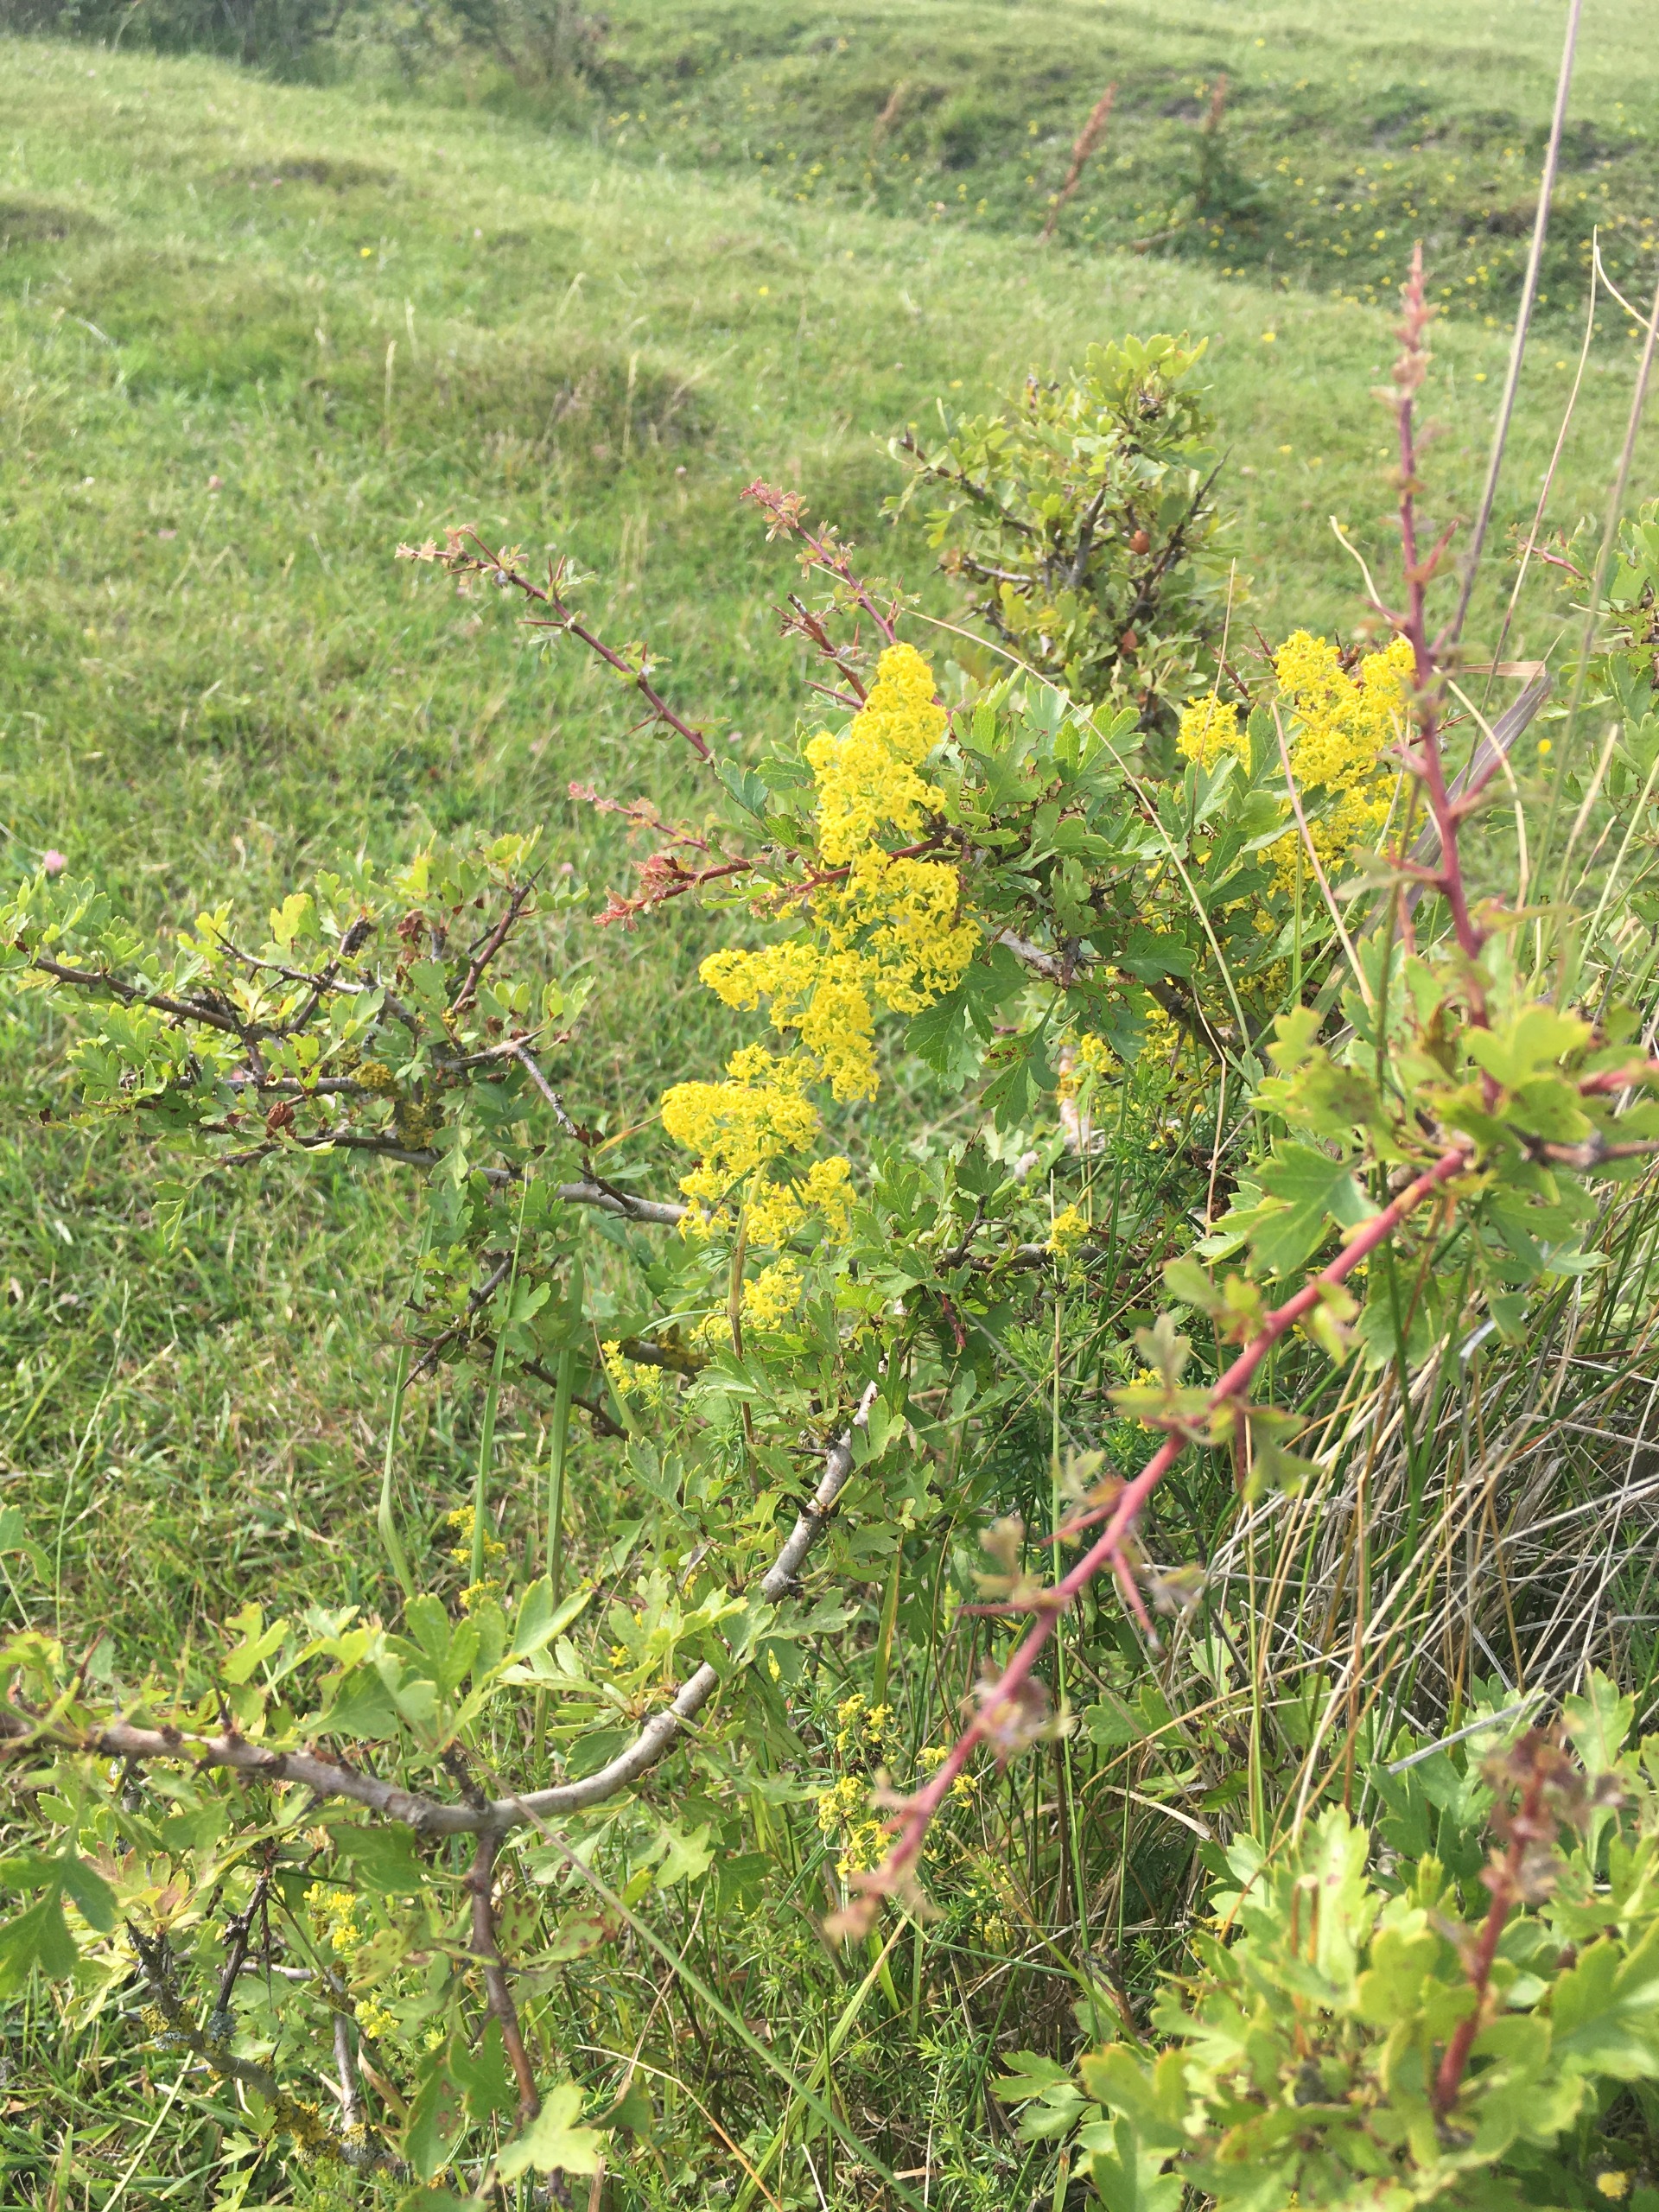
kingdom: Plantae
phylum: Tracheophyta
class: Magnoliopsida
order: Gentianales
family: Rubiaceae
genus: Galium
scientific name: Galium verum
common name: Gul snerre
